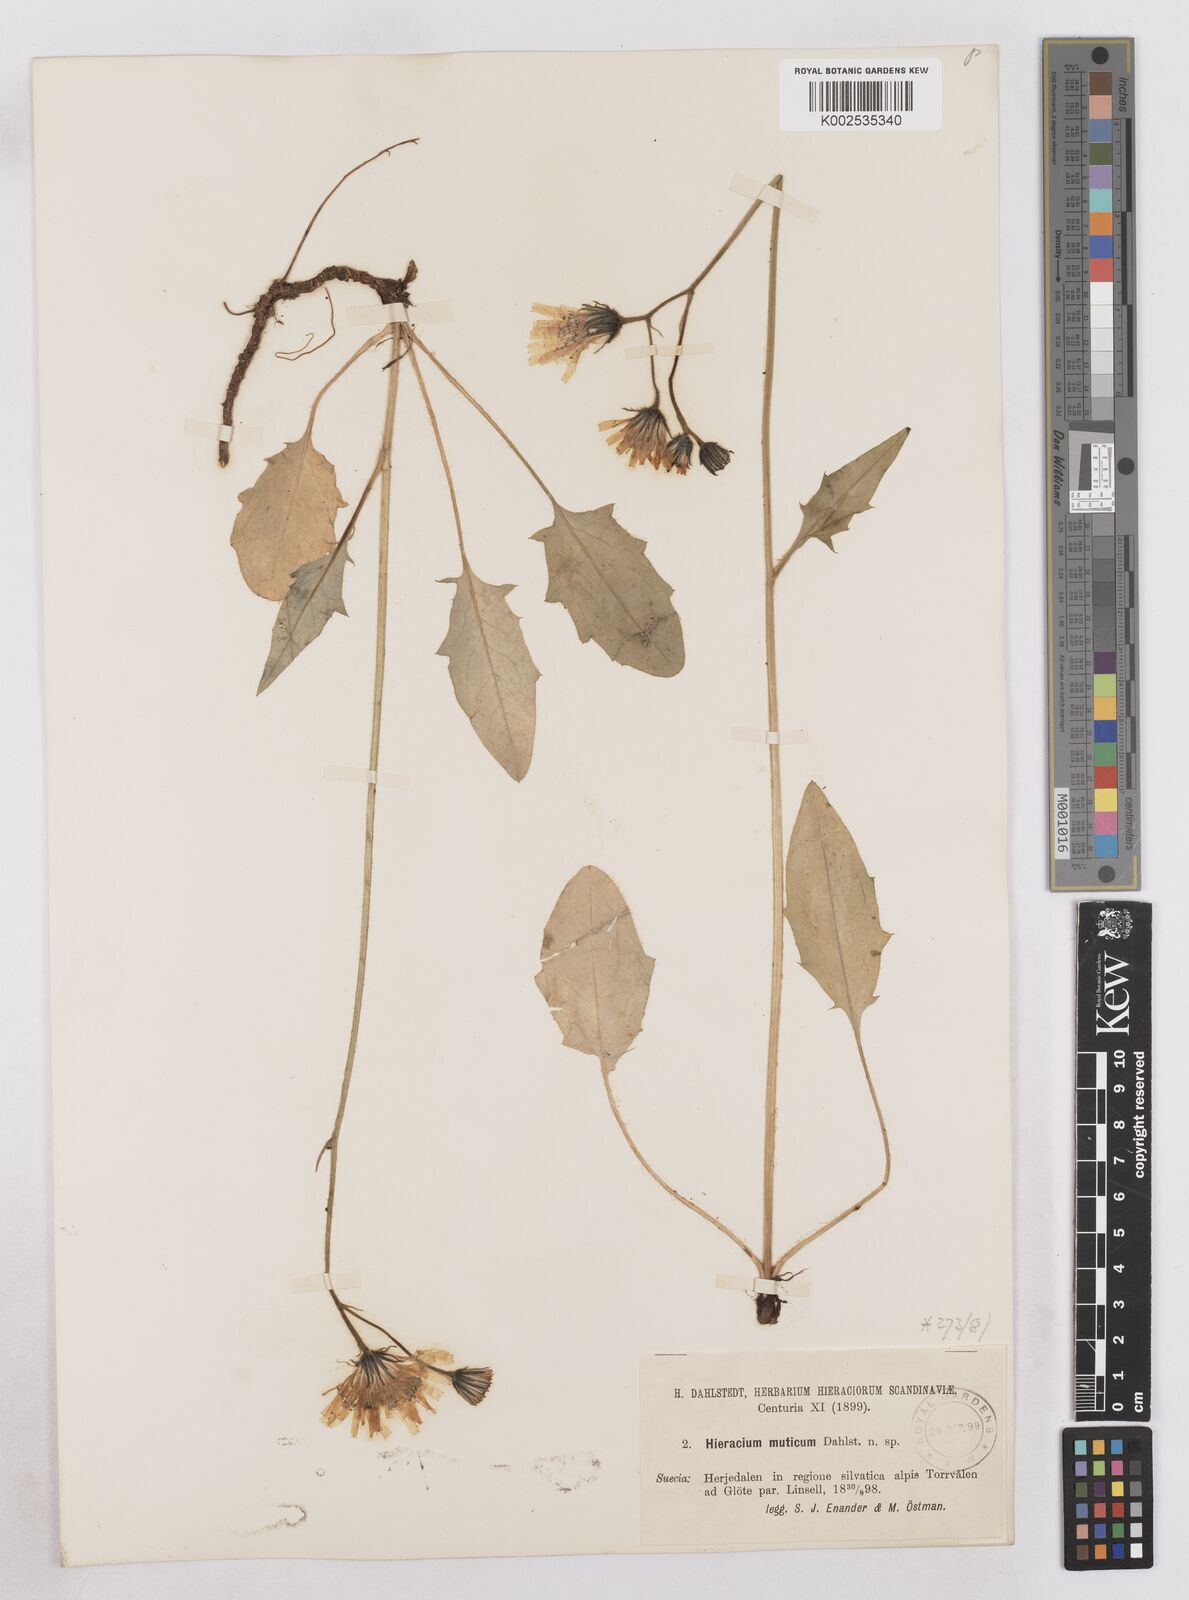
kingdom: Plantae
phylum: Tracheophyta
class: Magnoliopsida
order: Asterales
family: Asteraceae
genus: Hieracium
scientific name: Hieracium conspurcans
